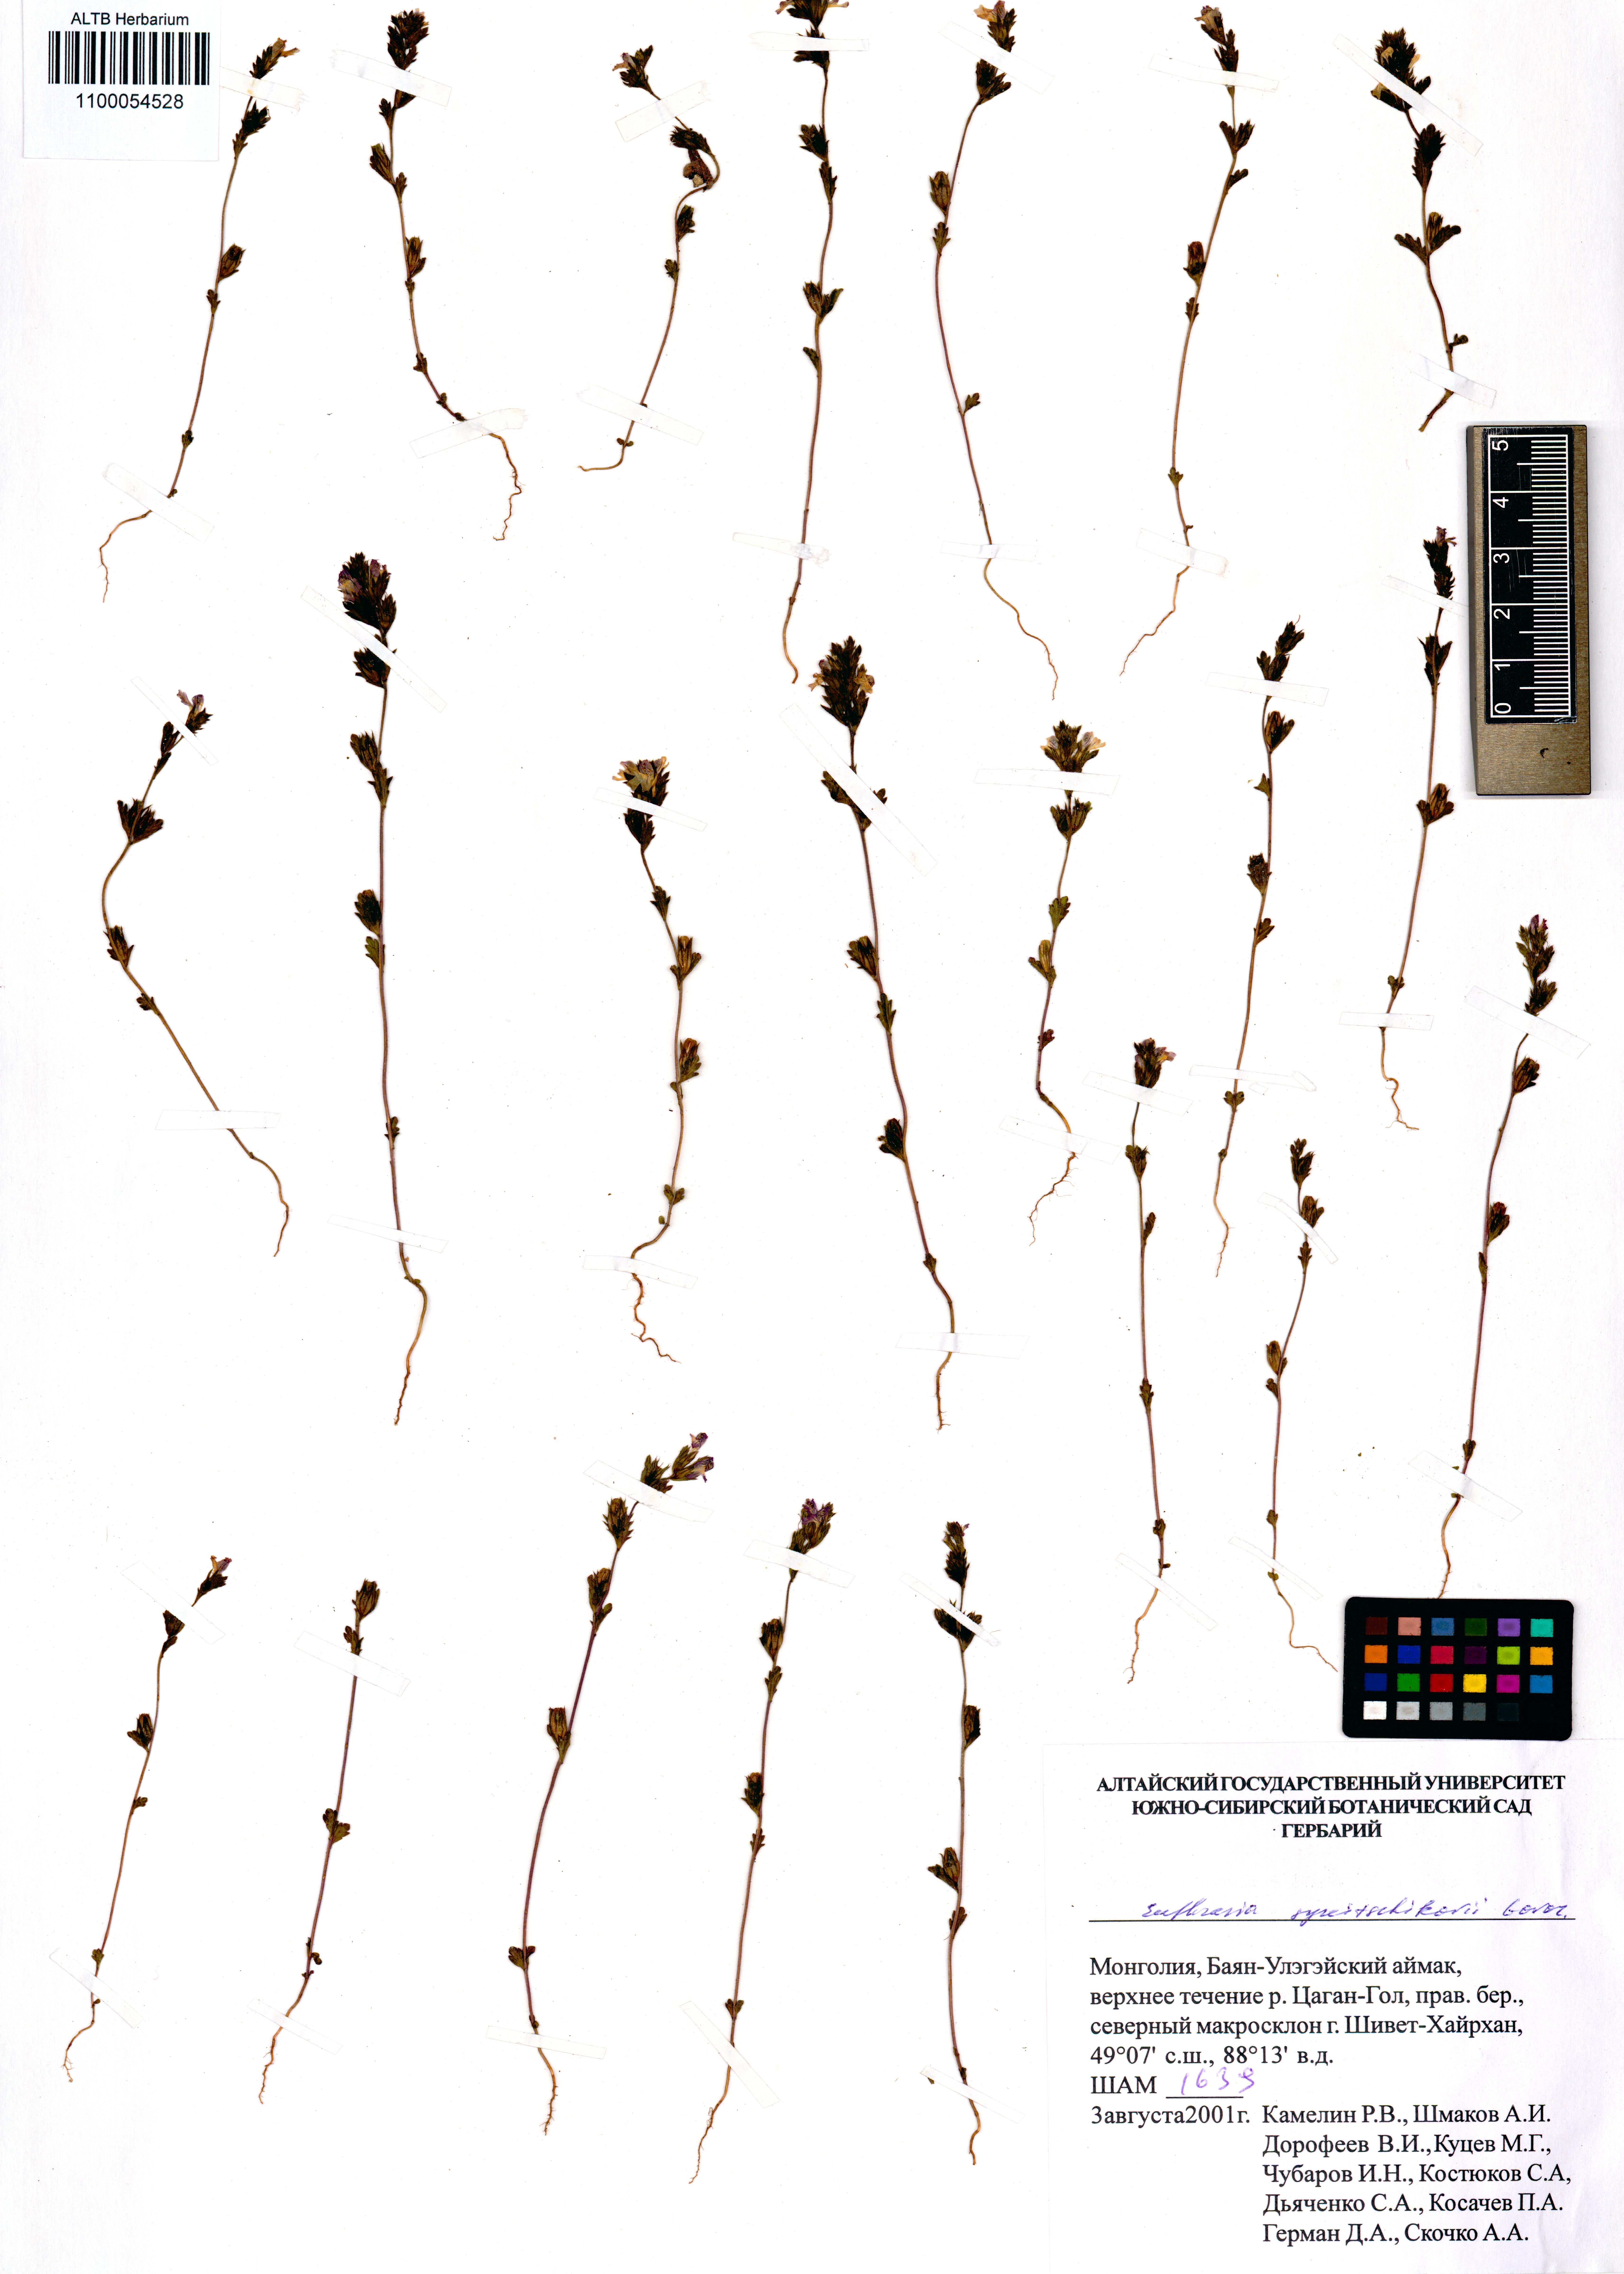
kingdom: Plantae
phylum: Tracheophyta
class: Magnoliopsida
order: Lamiales
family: Orobanchaceae
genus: Euphrasia
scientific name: Euphrasia syreitschikovii
